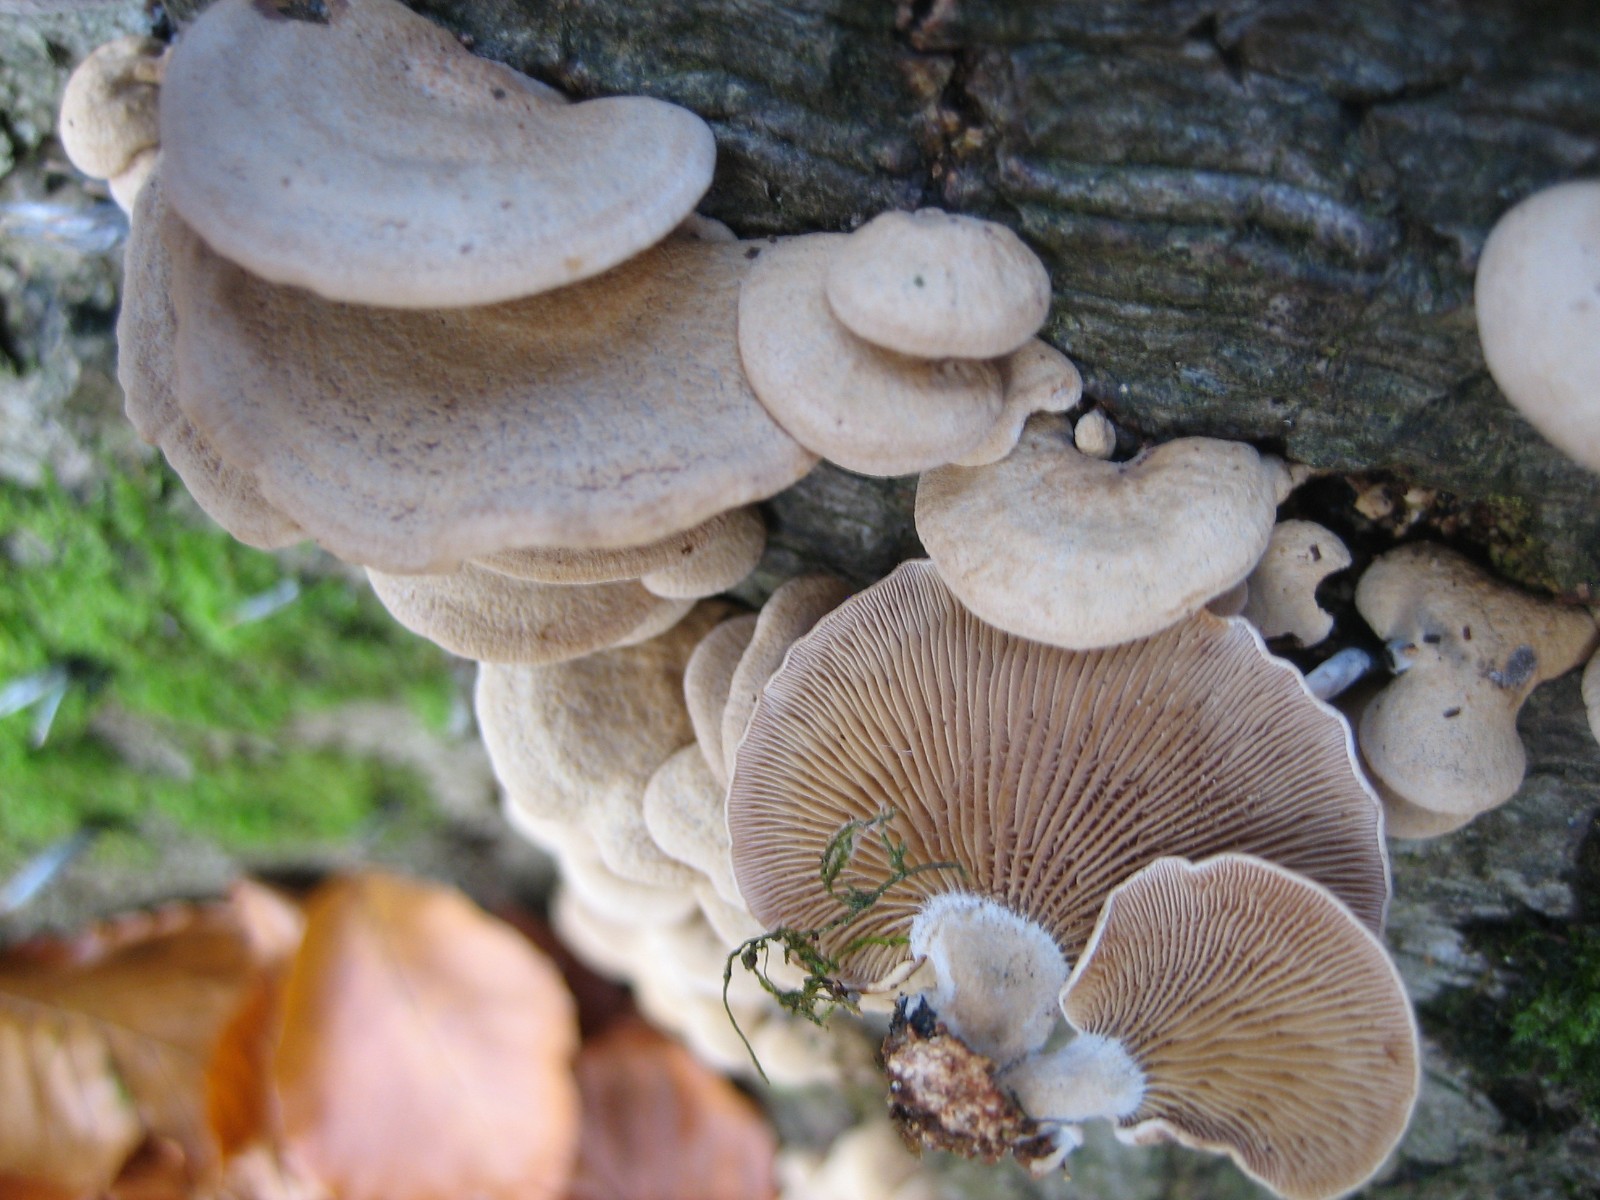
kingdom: Fungi
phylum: Basidiomycota
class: Agaricomycetes
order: Agaricales
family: Mycenaceae
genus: Panellus
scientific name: Panellus stipticus
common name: kliddet epaulethat
